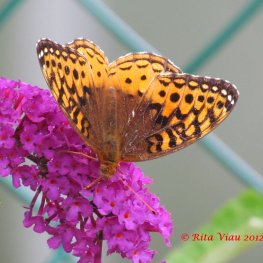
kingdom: Animalia
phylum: Arthropoda
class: Insecta
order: Lepidoptera
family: Nymphalidae
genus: Speyeria
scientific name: Speyeria cybele
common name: Great Spangled Fritillary
